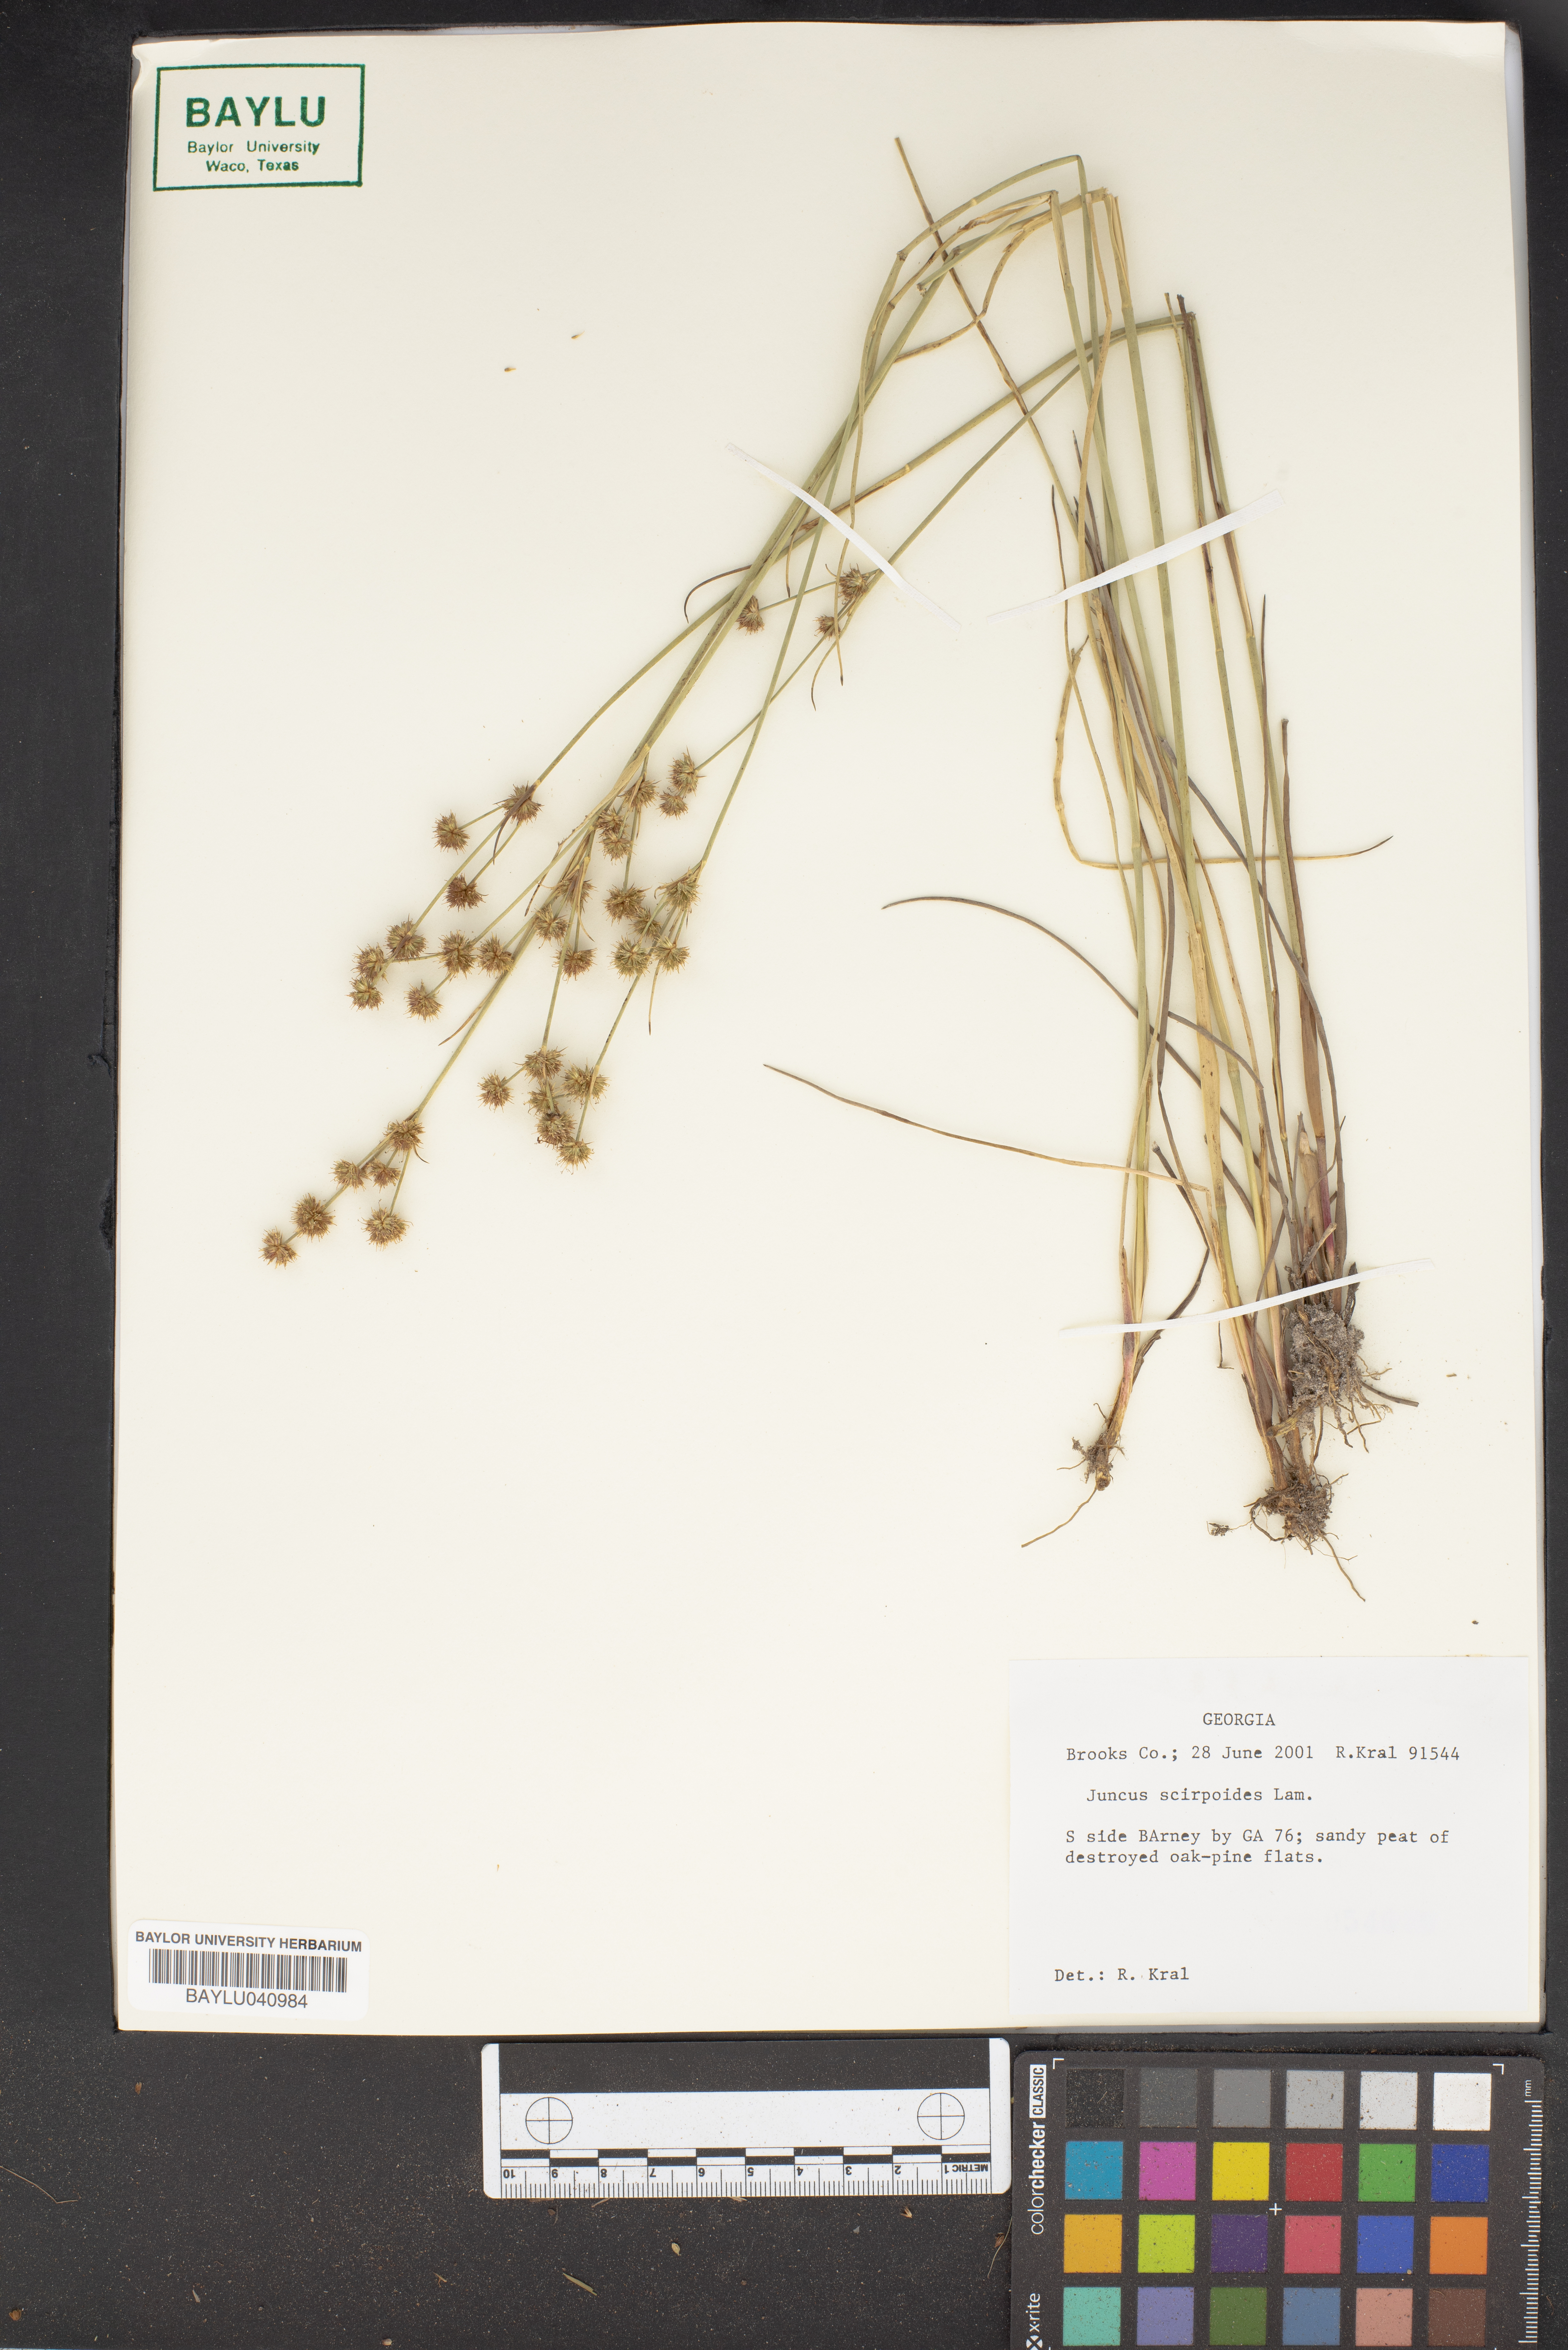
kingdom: Plantae
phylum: Tracheophyta
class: Liliopsida
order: Poales
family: Juncaceae
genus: Juncus
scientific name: Juncus scirpoides
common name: Needlepod rush
